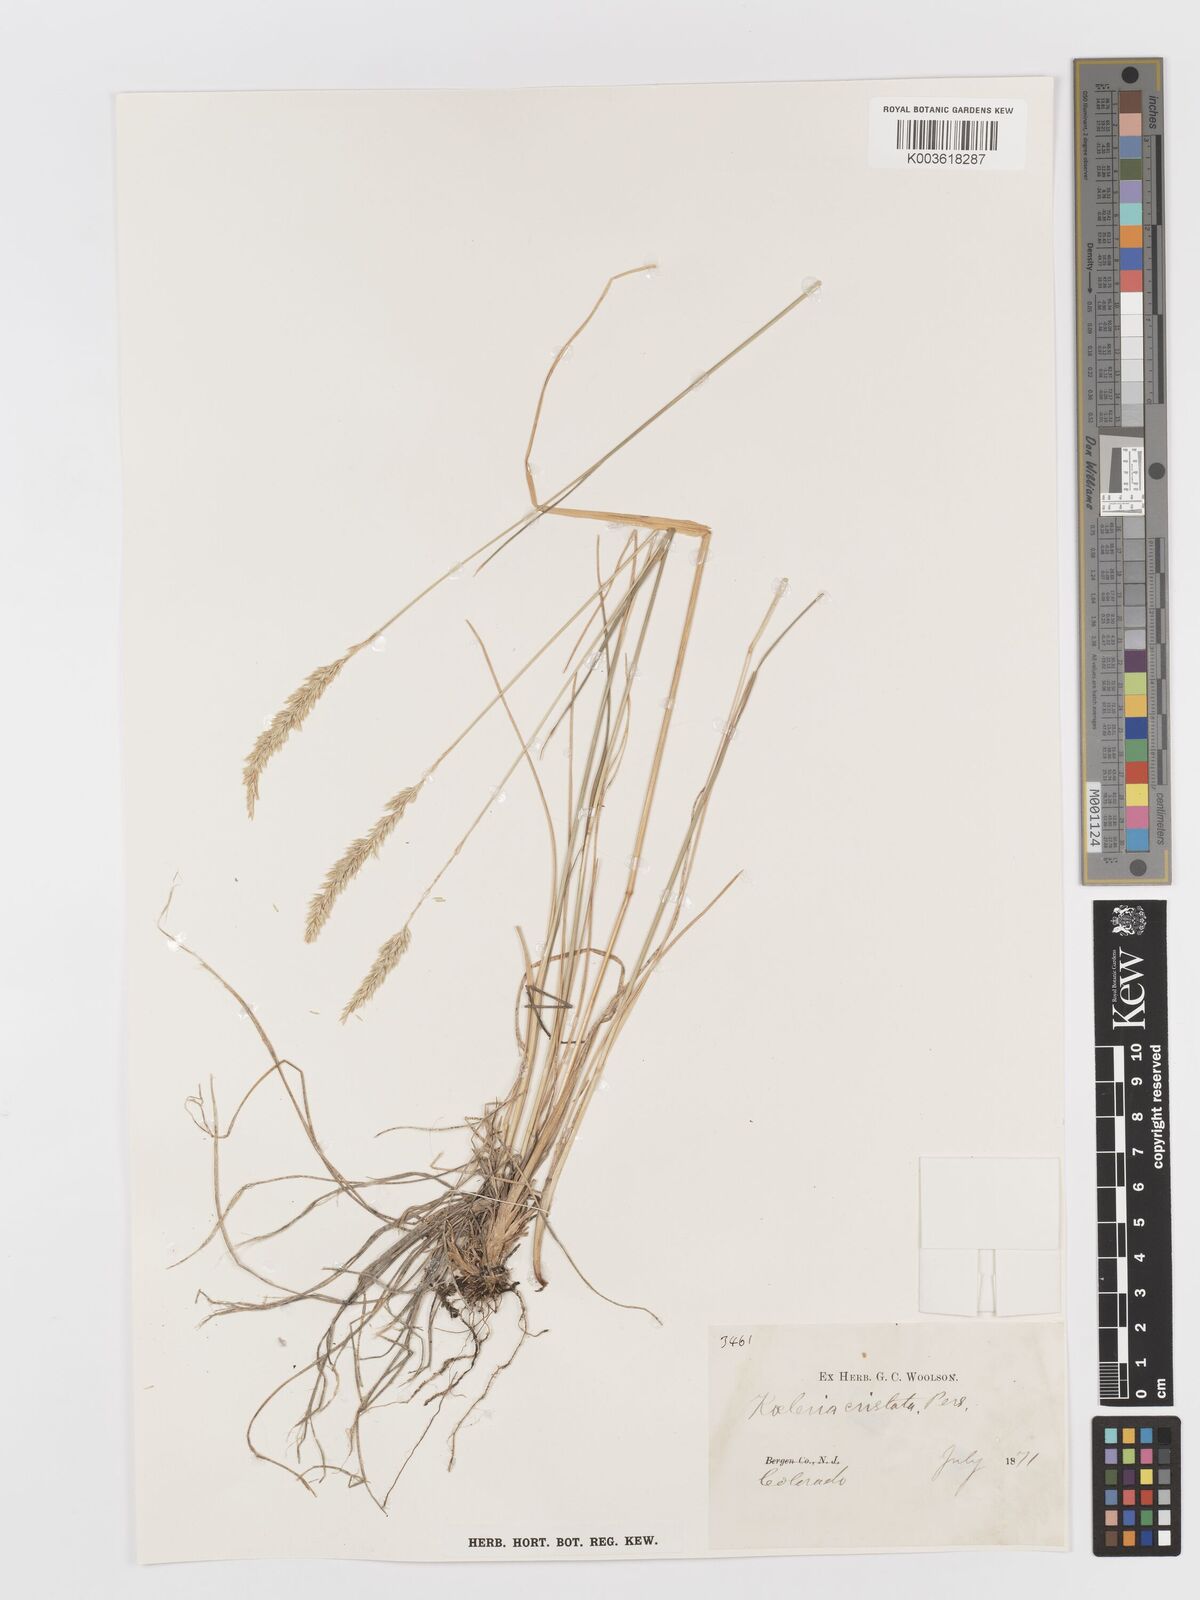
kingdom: Plantae
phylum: Tracheophyta
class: Liliopsida
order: Poales
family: Poaceae
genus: Koeleria
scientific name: Koeleria macrantha
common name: Crested hair-grass
